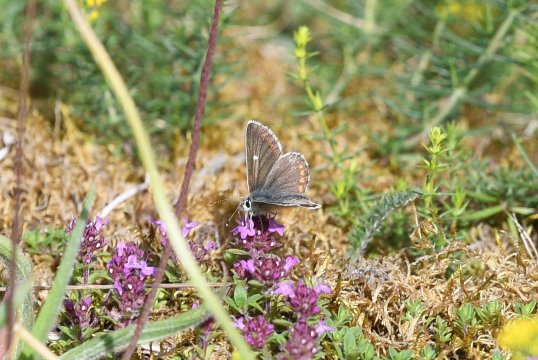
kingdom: Animalia
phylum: Arthropoda
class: Insecta
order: Lepidoptera
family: Lycaenidae
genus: Aricia
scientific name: Aricia artaxerxes
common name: Northern Brown Argus
